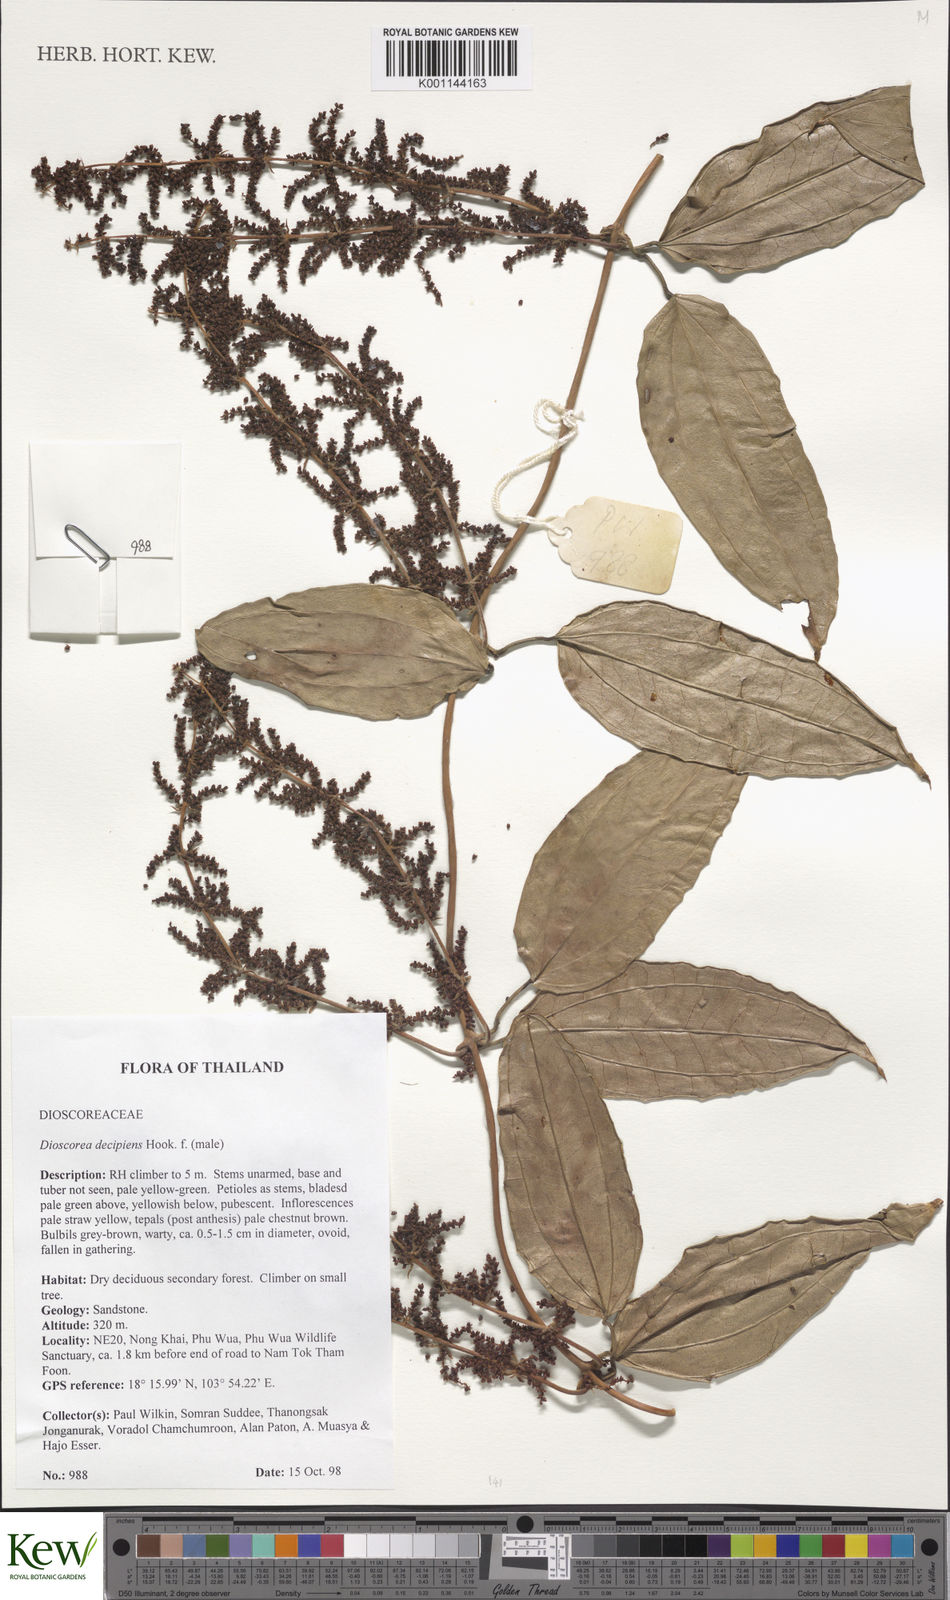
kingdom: Plantae
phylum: Tracheophyta
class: Liliopsida
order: Dioscoreales
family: Dioscoreaceae
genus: Dioscorea
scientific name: Dioscorea decipiens
